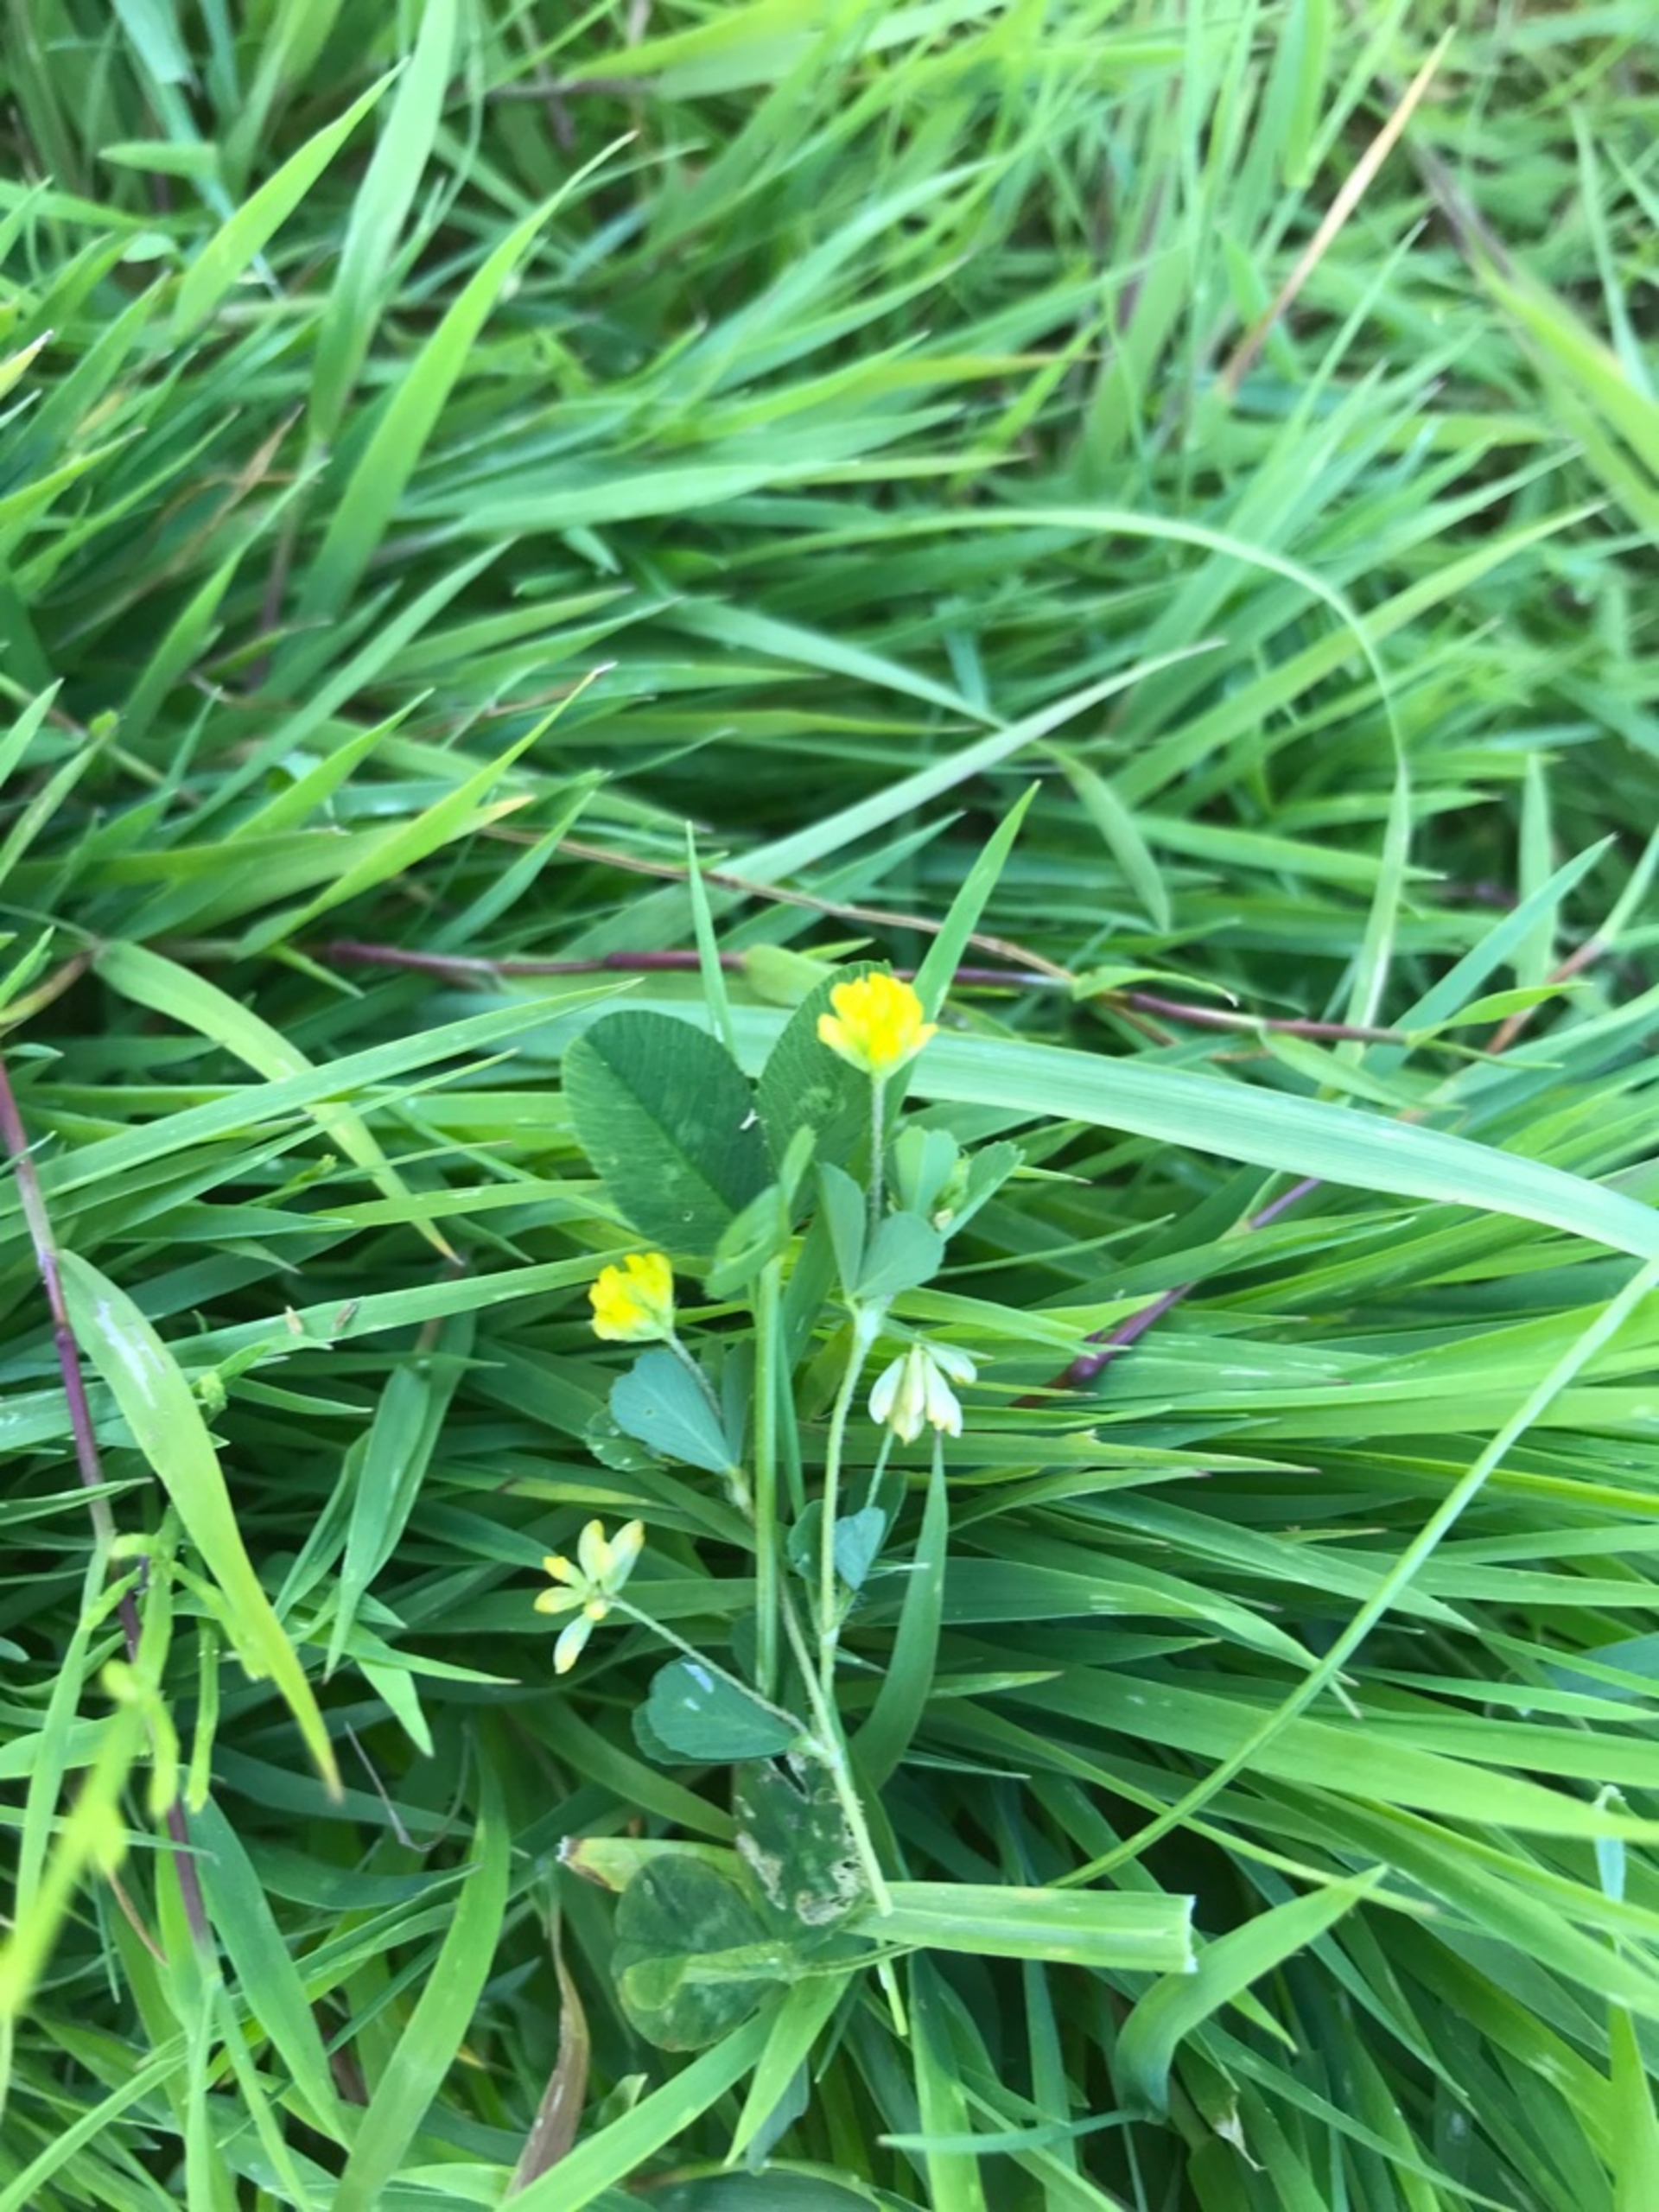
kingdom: Plantae
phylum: Tracheophyta
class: Magnoliopsida
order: Fabales
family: Fabaceae
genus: Trifolium
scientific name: Trifolium dubium
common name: Fin kløver
